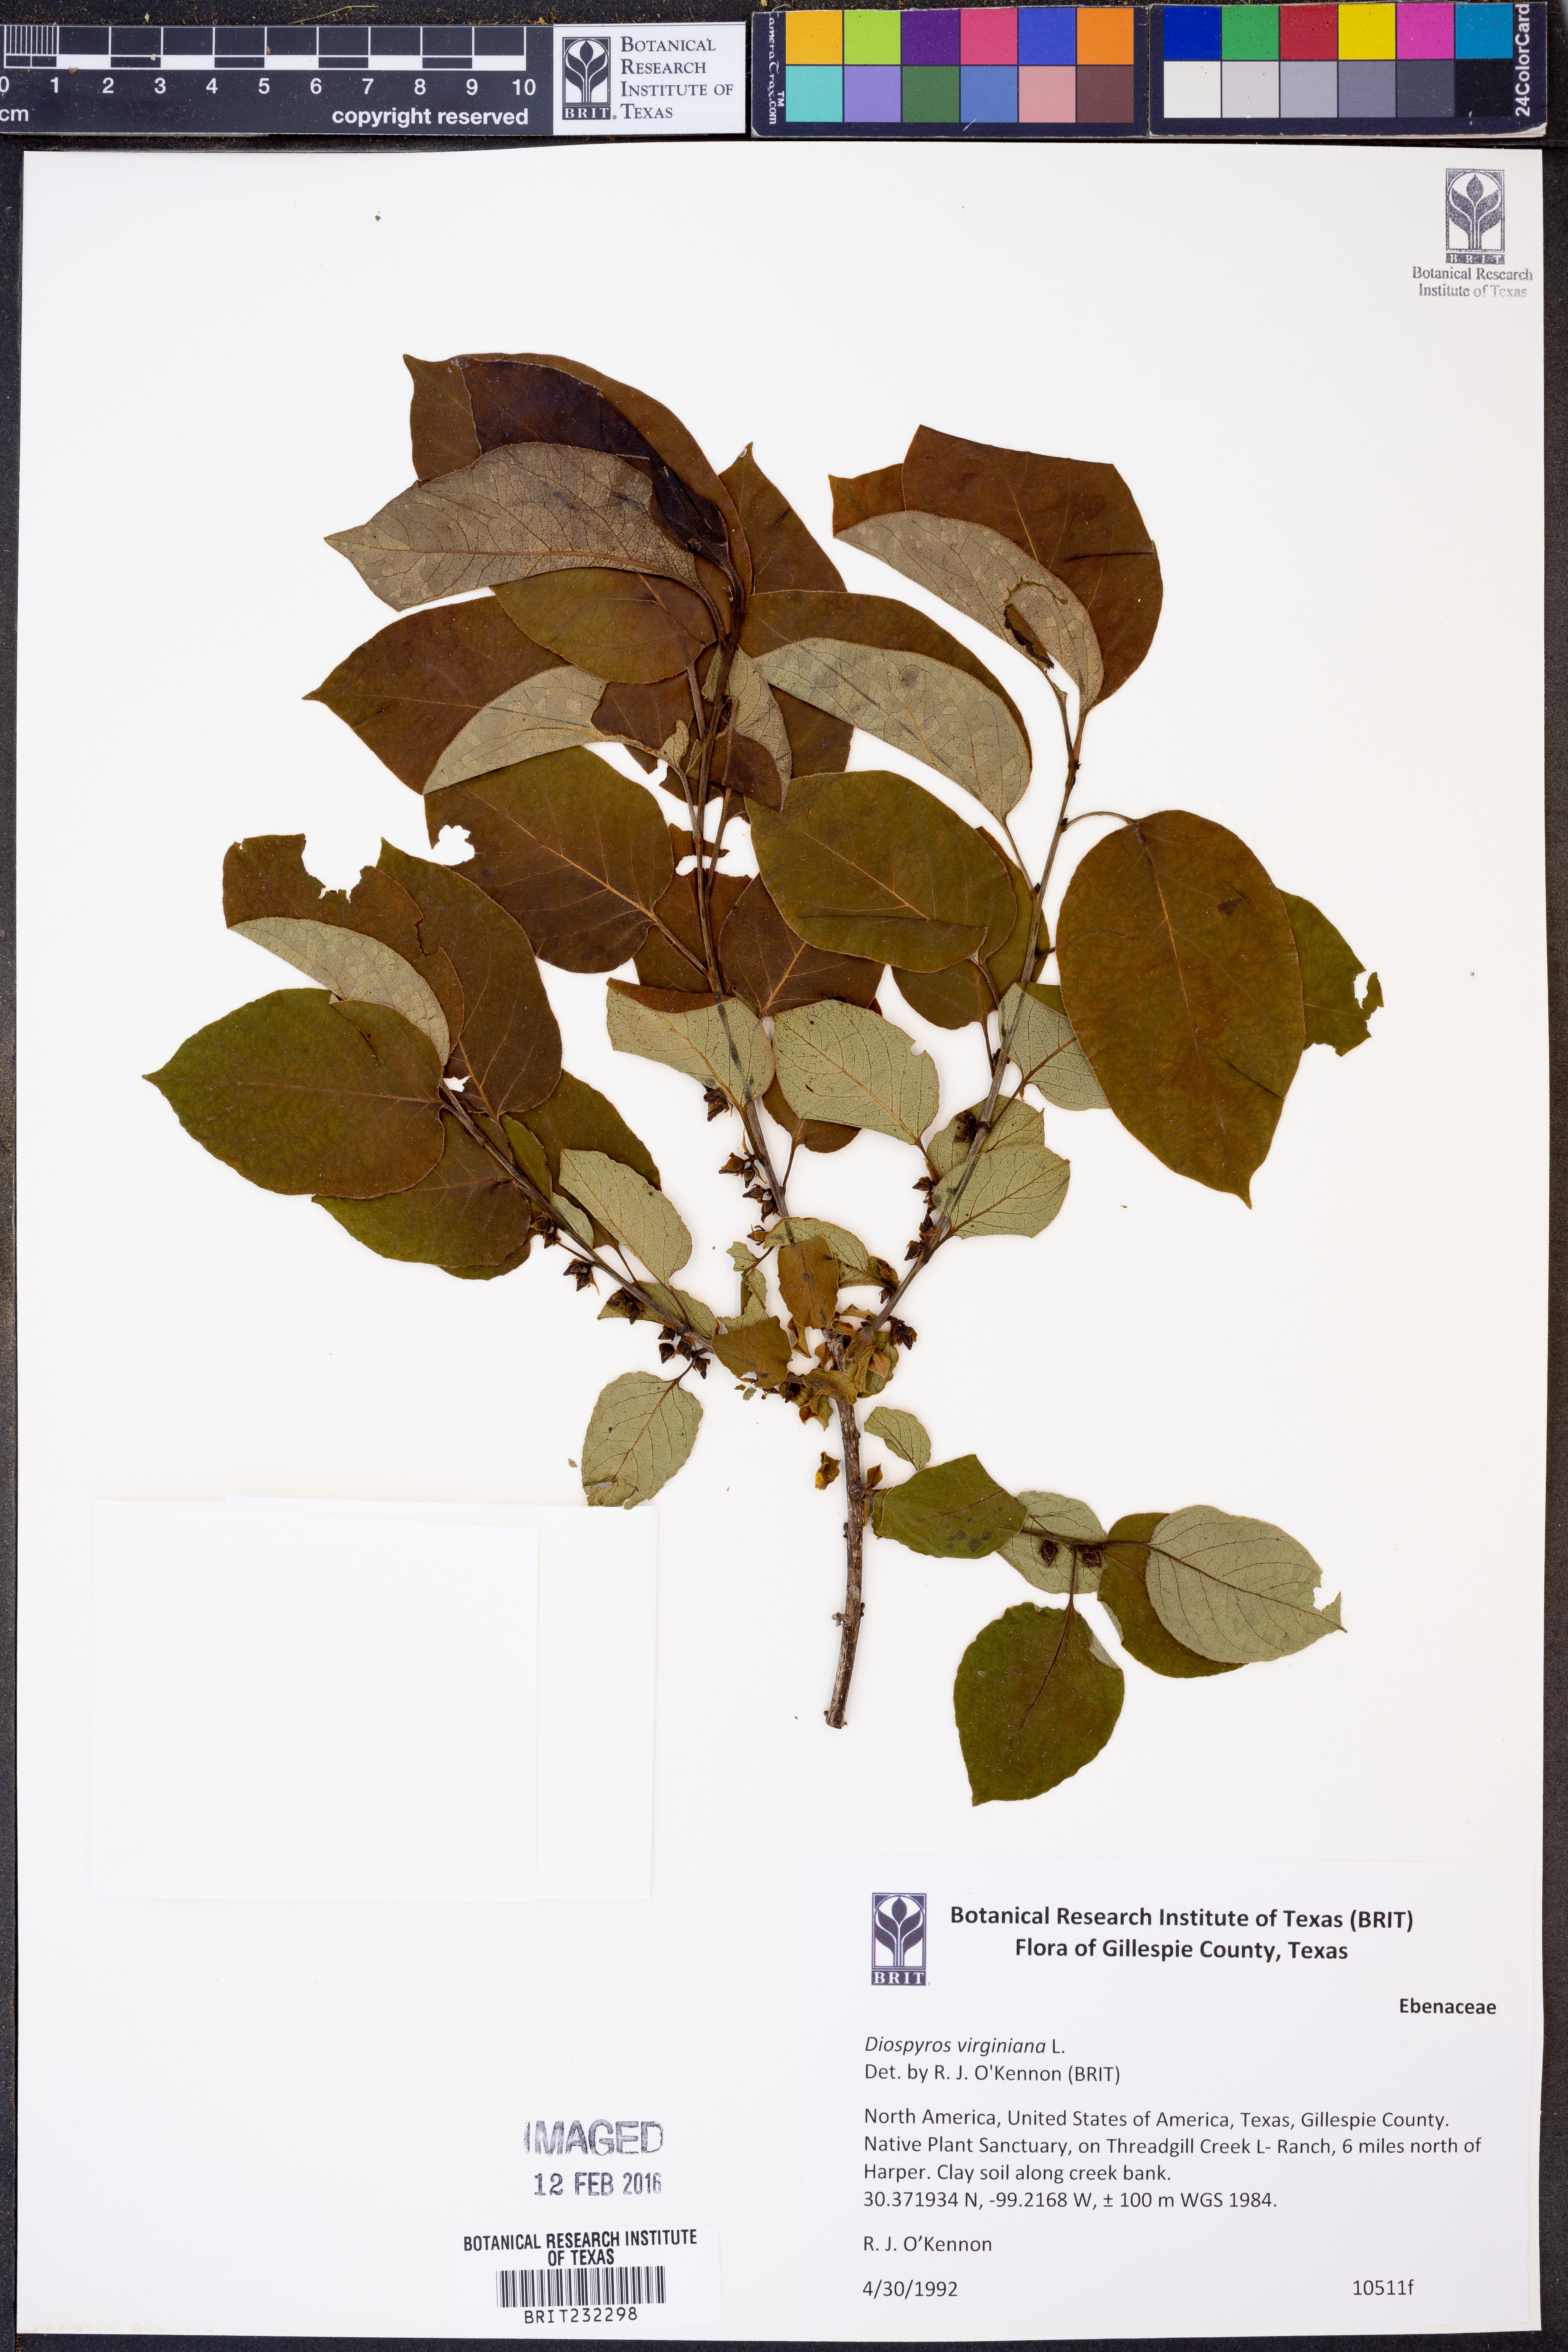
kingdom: Plantae
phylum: Tracheophyta
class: Magnoliopsida
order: Ericales
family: Ebenaceae
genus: Diospyros
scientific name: Diospyros virginiana
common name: Persimmon
